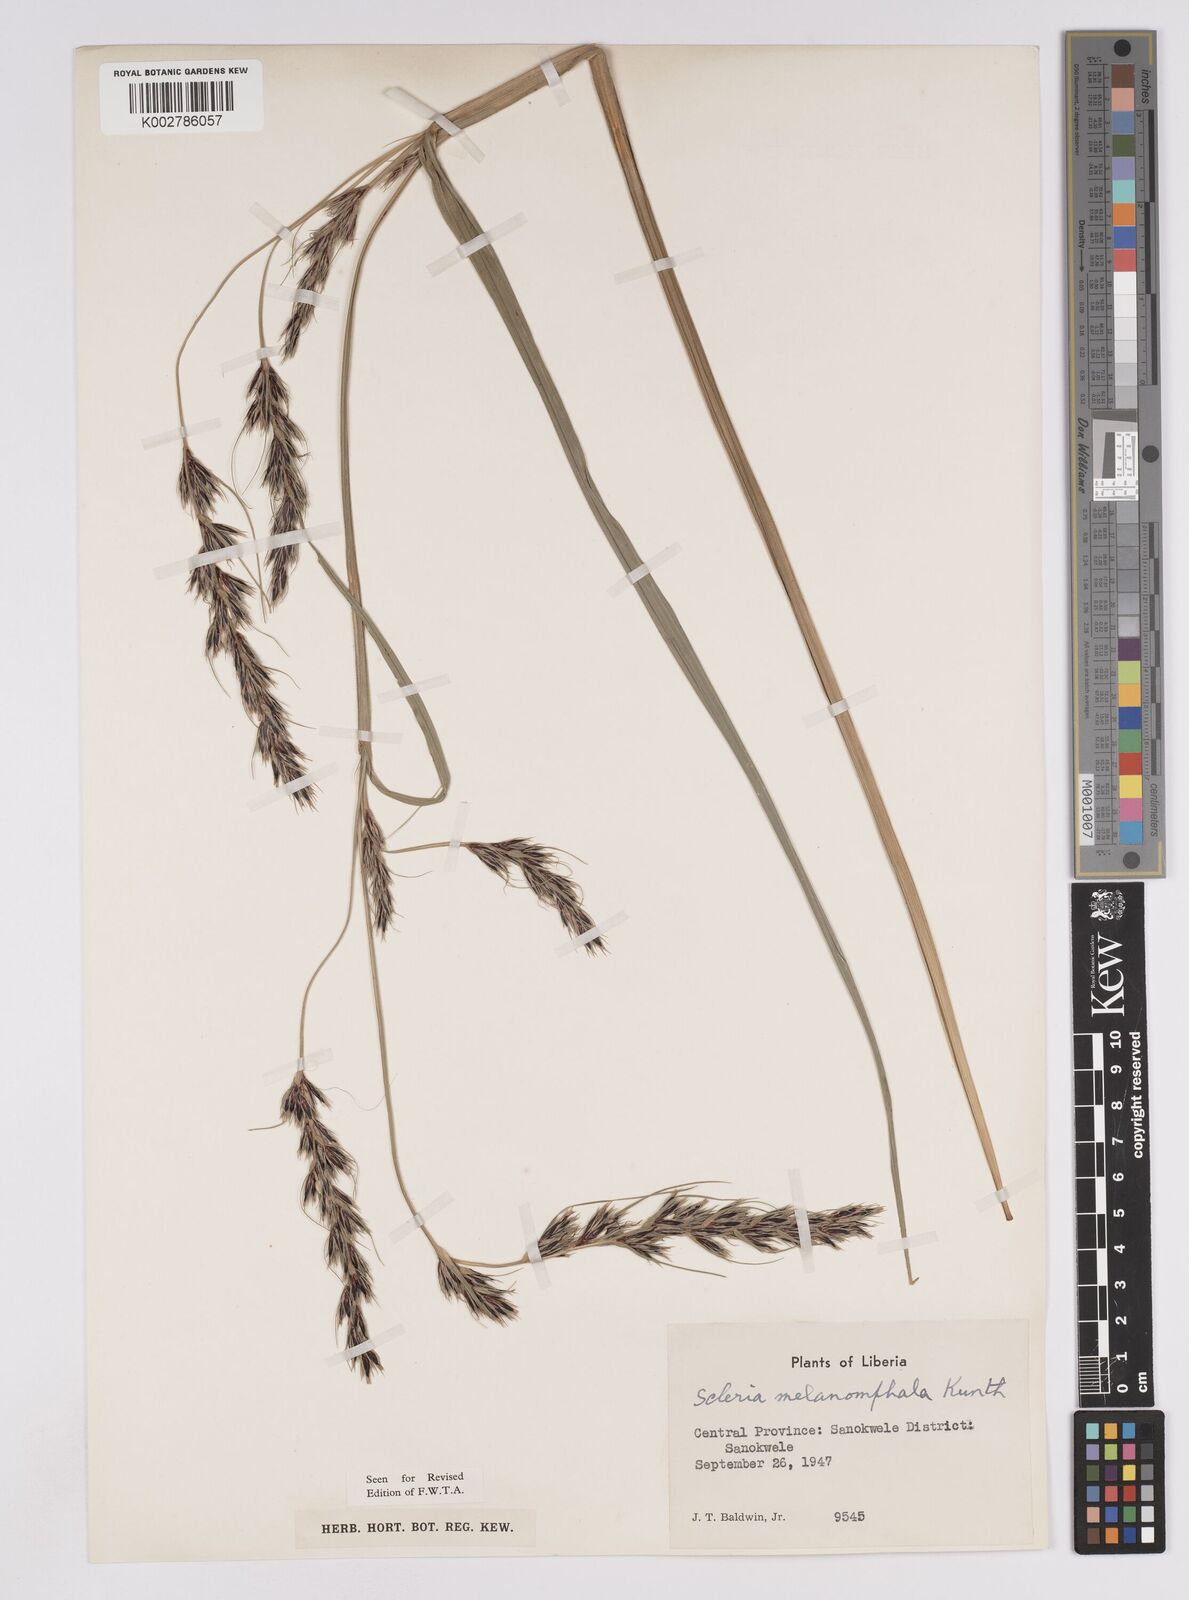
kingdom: Plantae
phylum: Tracheophyta
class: Liliopsida
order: Poales
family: Cyperaceae
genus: Scleria
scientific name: Scleria melanomphala
